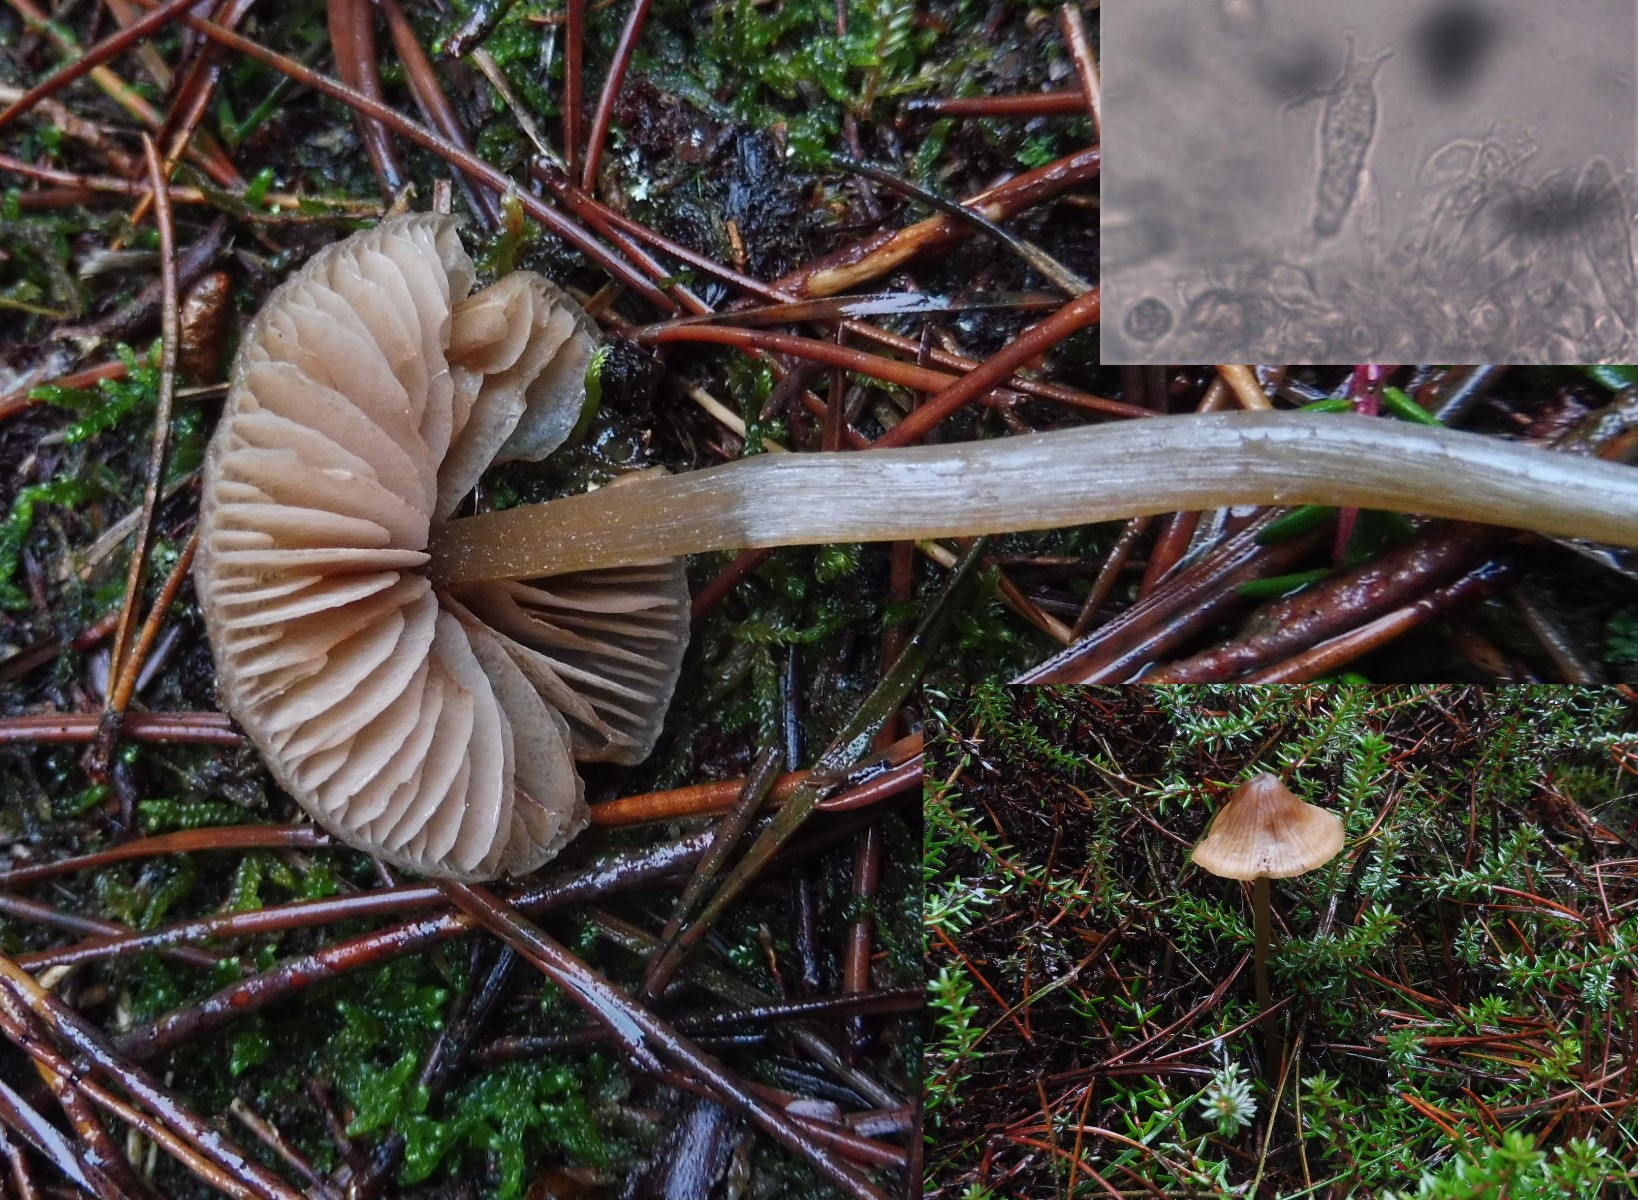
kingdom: Fungi
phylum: Basidiomycota
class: Agaricomycetes
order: Agaricales
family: Entolomataceae
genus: Entoloma
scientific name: Entoloma cetratum
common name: voks-rødblad
